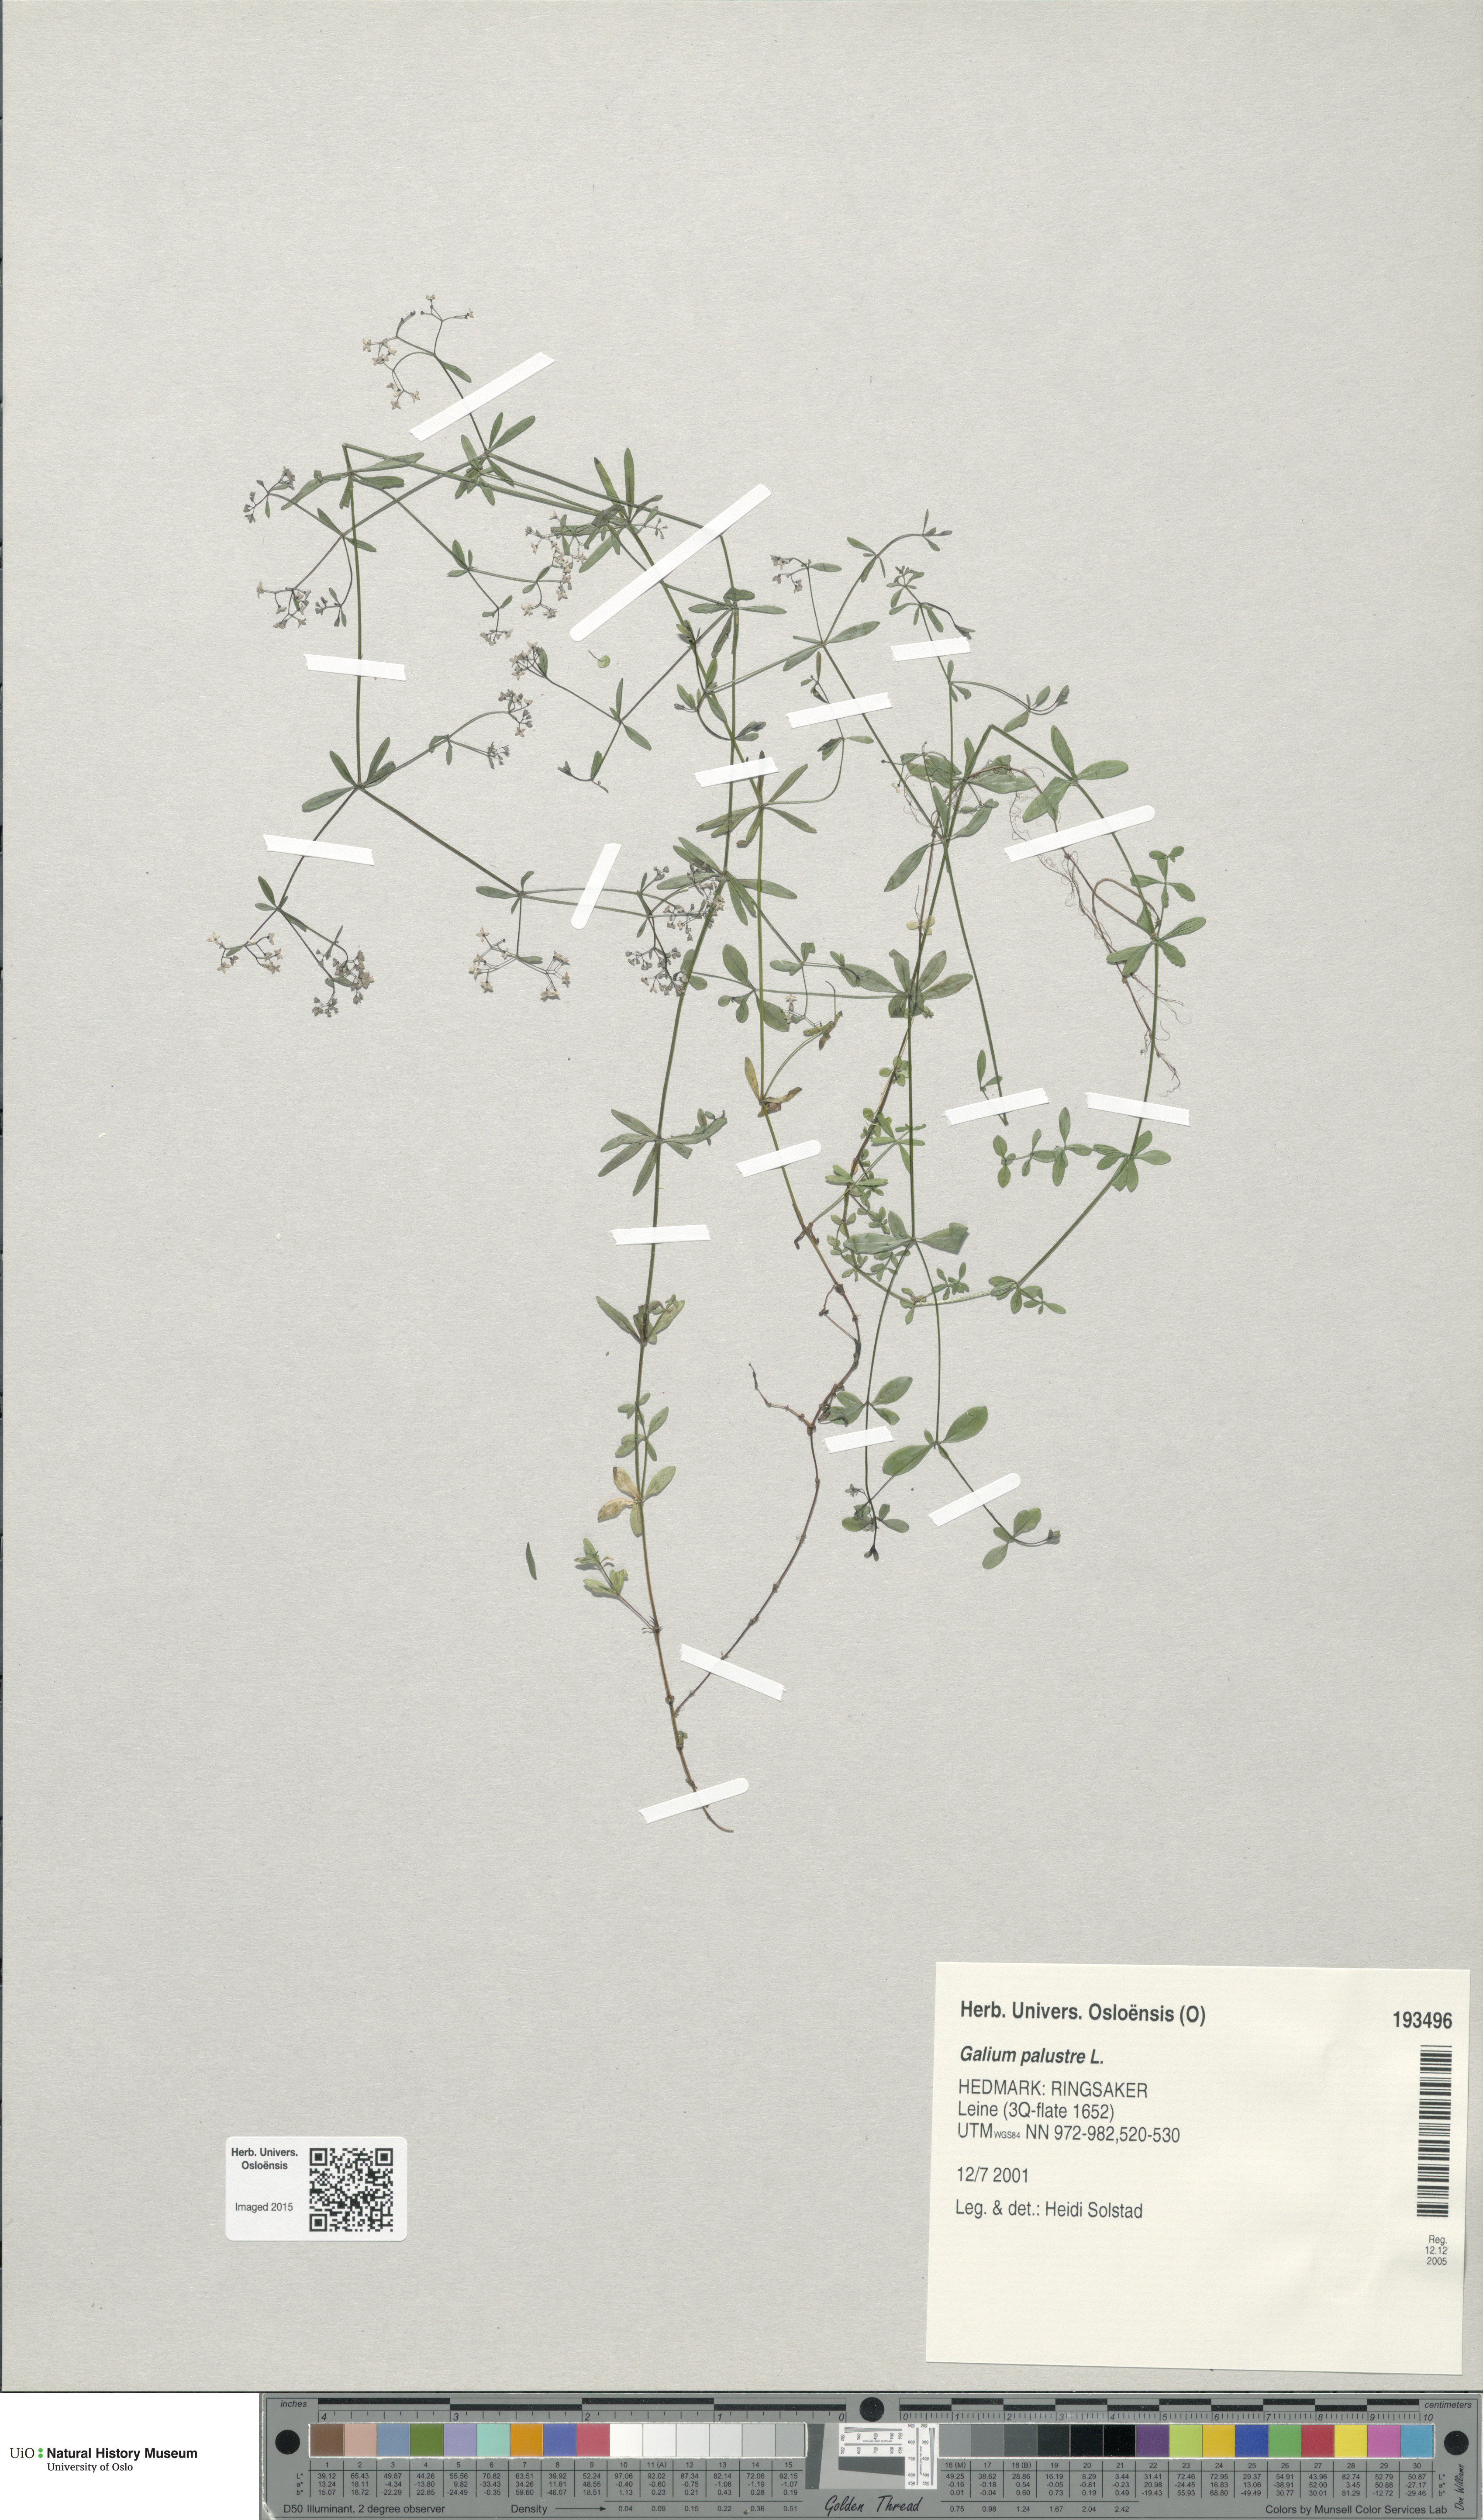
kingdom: Plantae
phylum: Tracheophyta
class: Magnoliopsida
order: Gentianales
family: Rubiaceae
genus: Galium
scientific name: Galium palustre
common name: Common marsh-bedstraw
